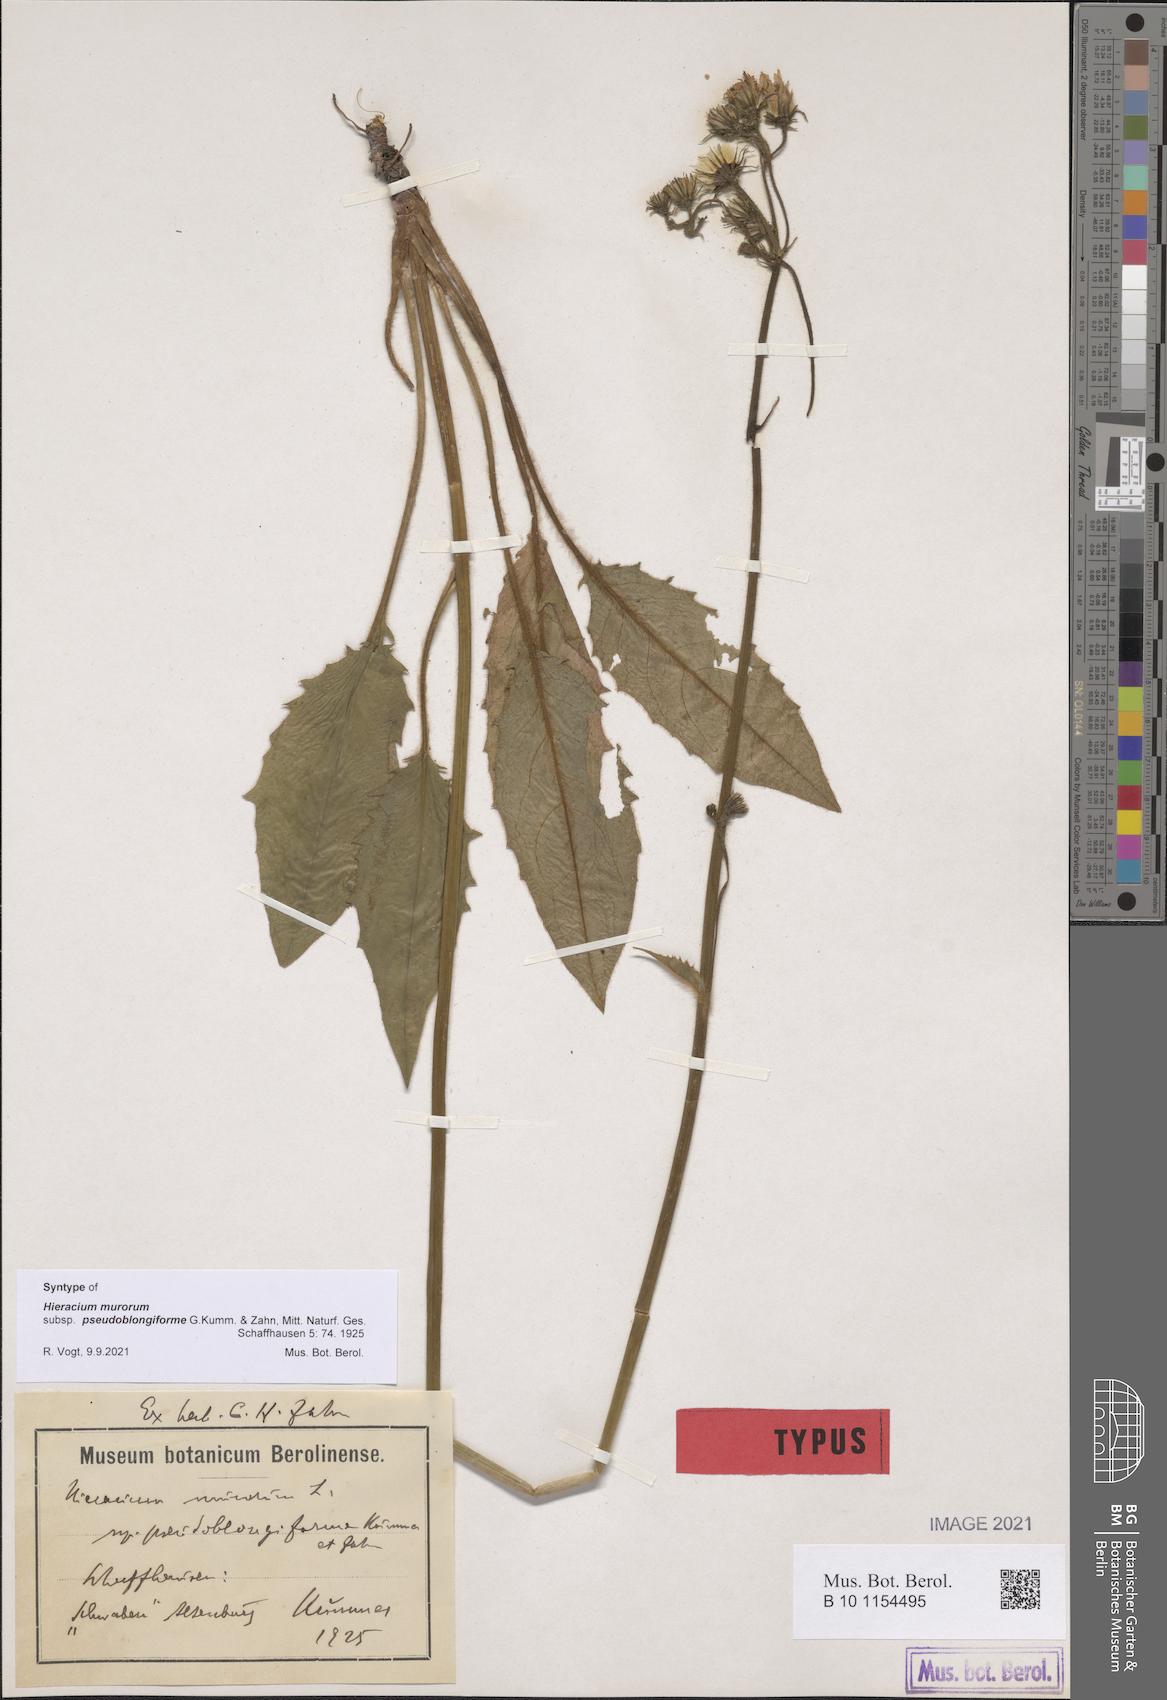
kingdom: Plantae
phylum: Tracheophyta
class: Magnoliopsida
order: Asterales
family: Asteraceae
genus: Hieracium
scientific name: Hieracium murorum
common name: Wall hawkweed
